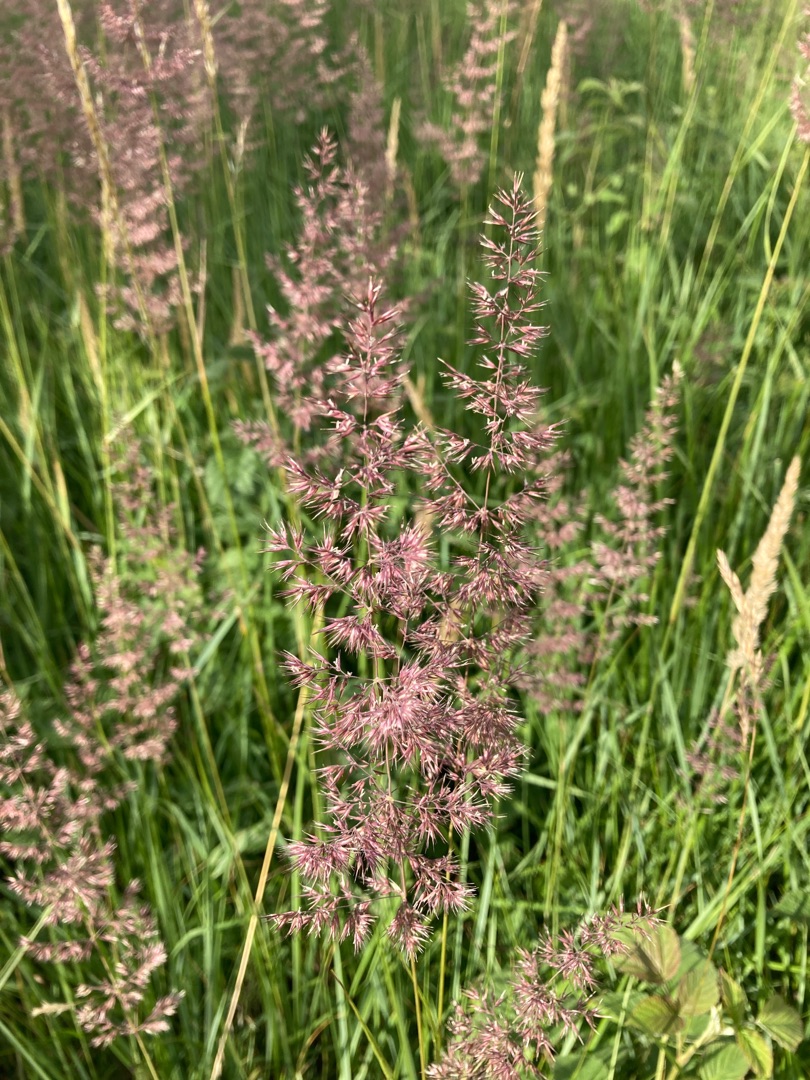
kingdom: Plantae
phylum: Tracheophyta
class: Liliopsida
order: Poales
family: Poaceae
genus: Calamagrostis
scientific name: Calamagrostis epigejos
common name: Bjerg-rørhvene
